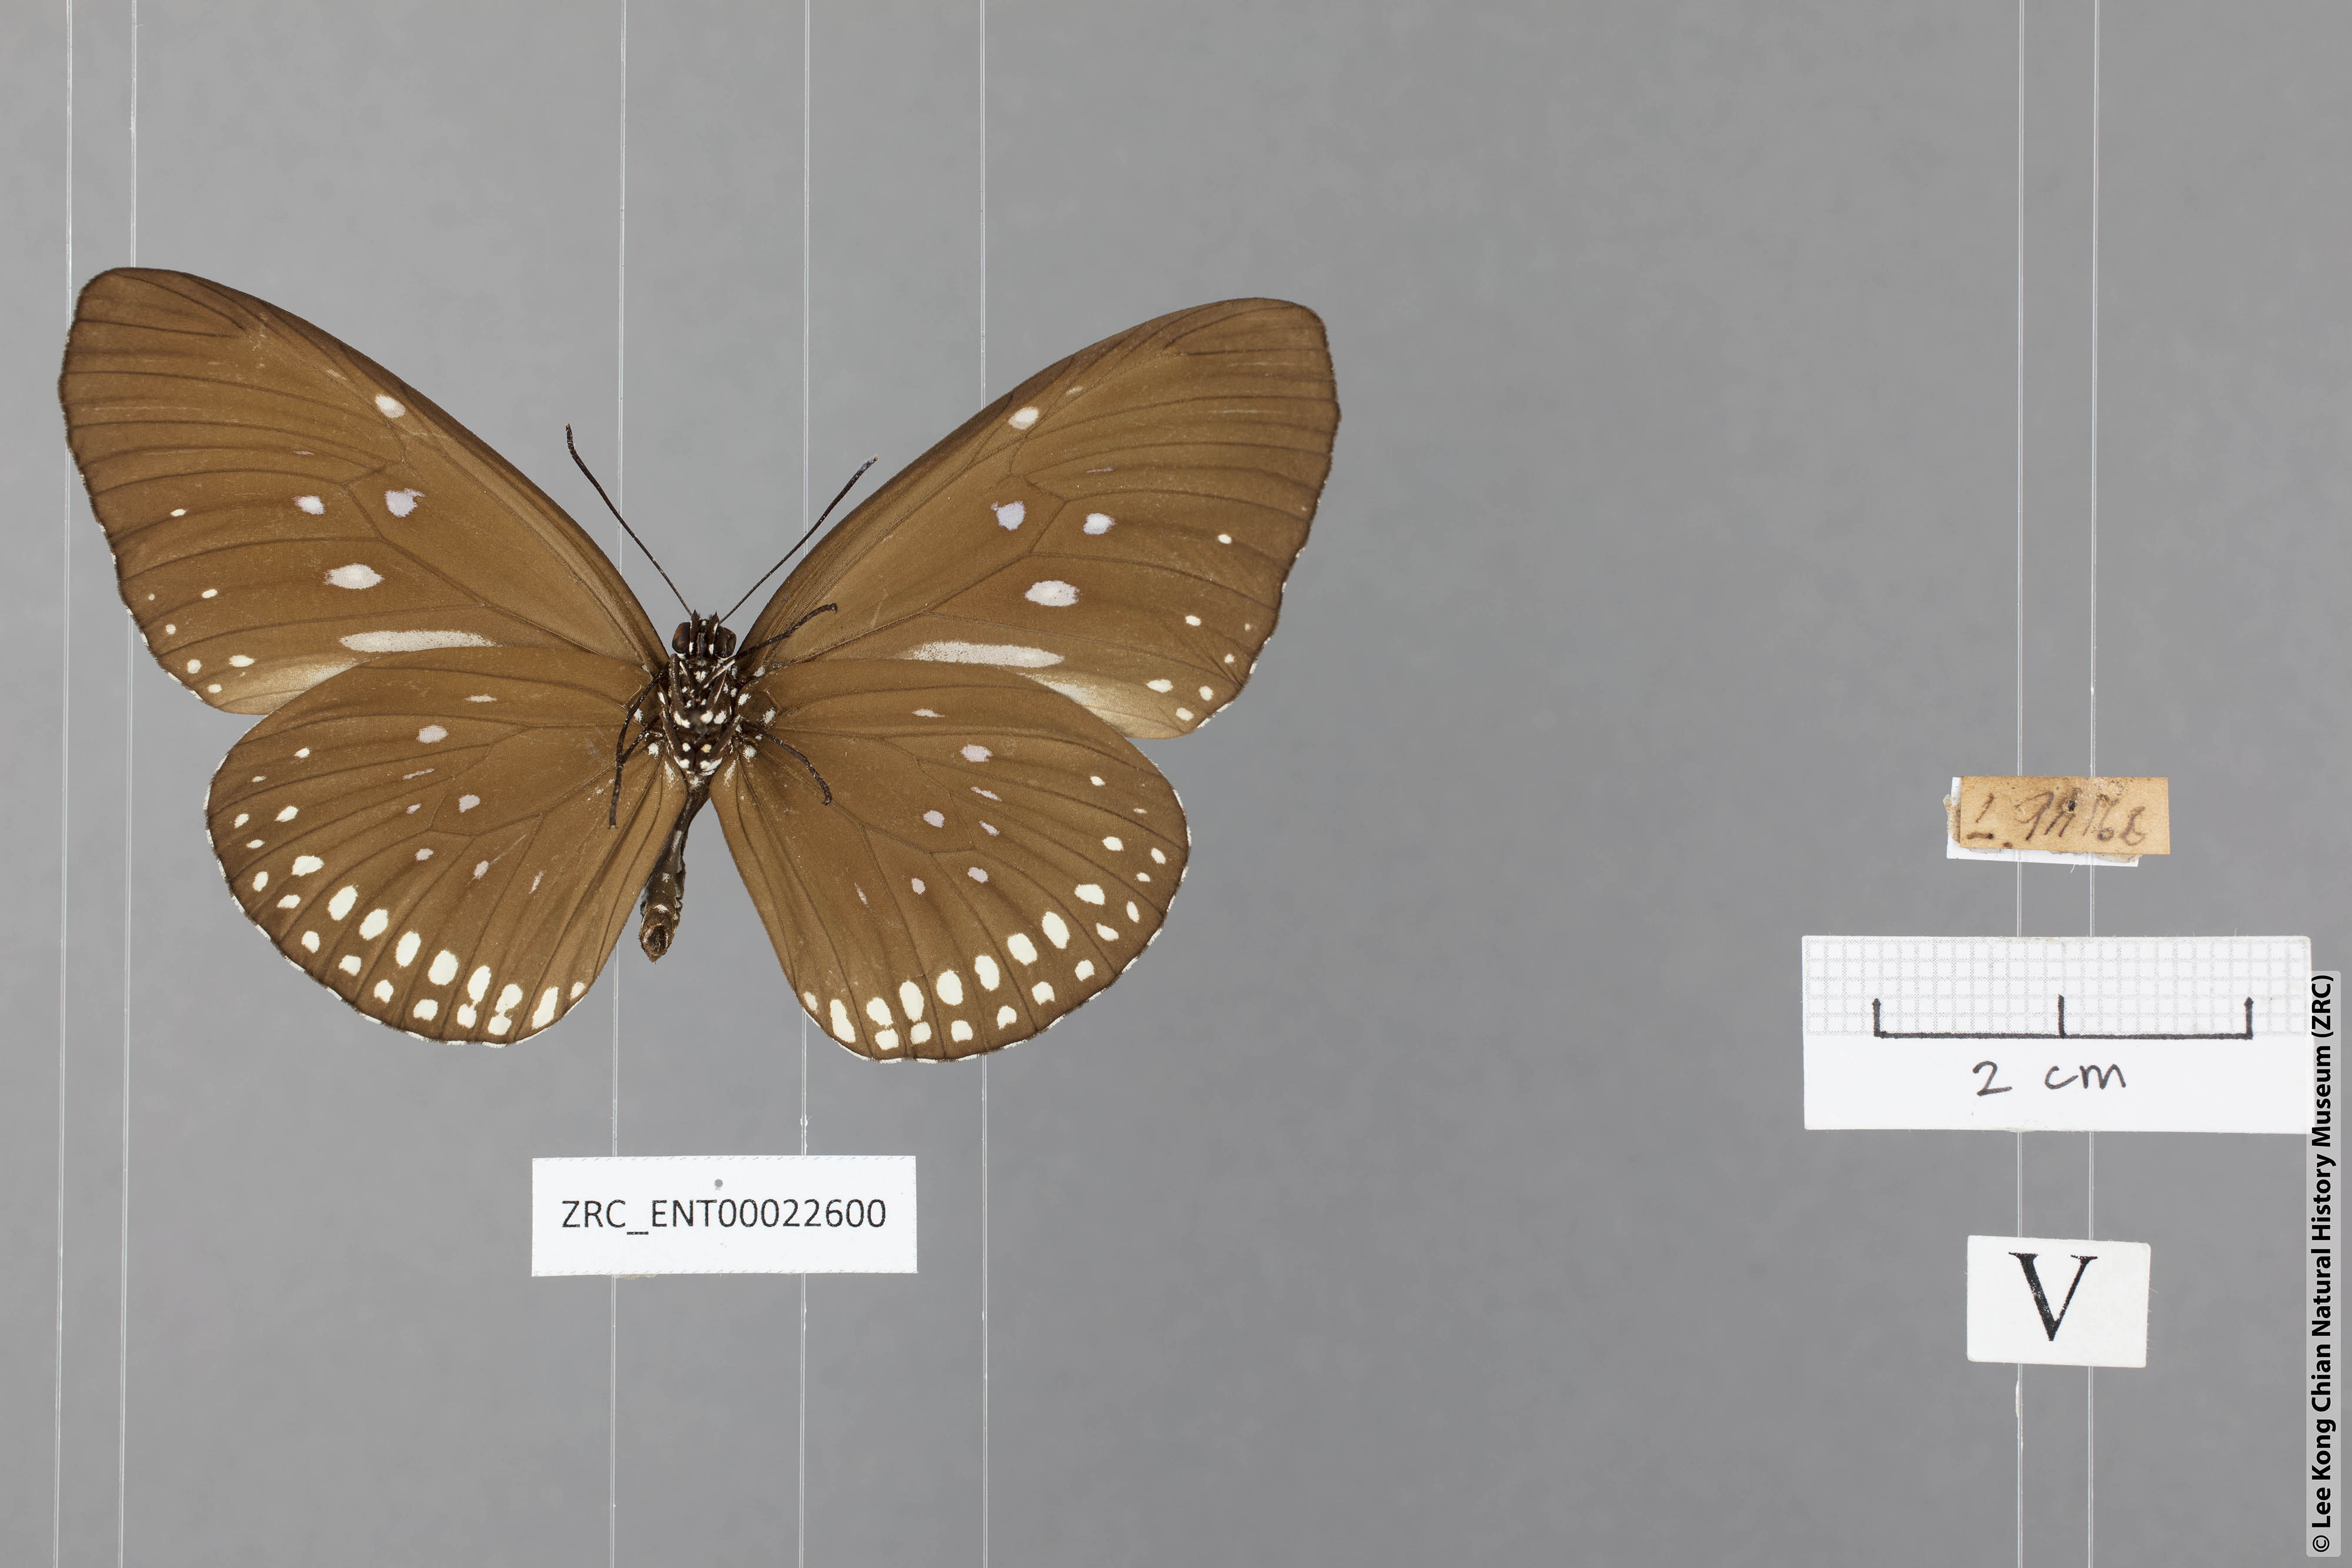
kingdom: Animalia
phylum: Arthropoda
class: Insecta
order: Lepidoptera
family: Nymphalidae
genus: Euploea
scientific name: Euploea modesta
